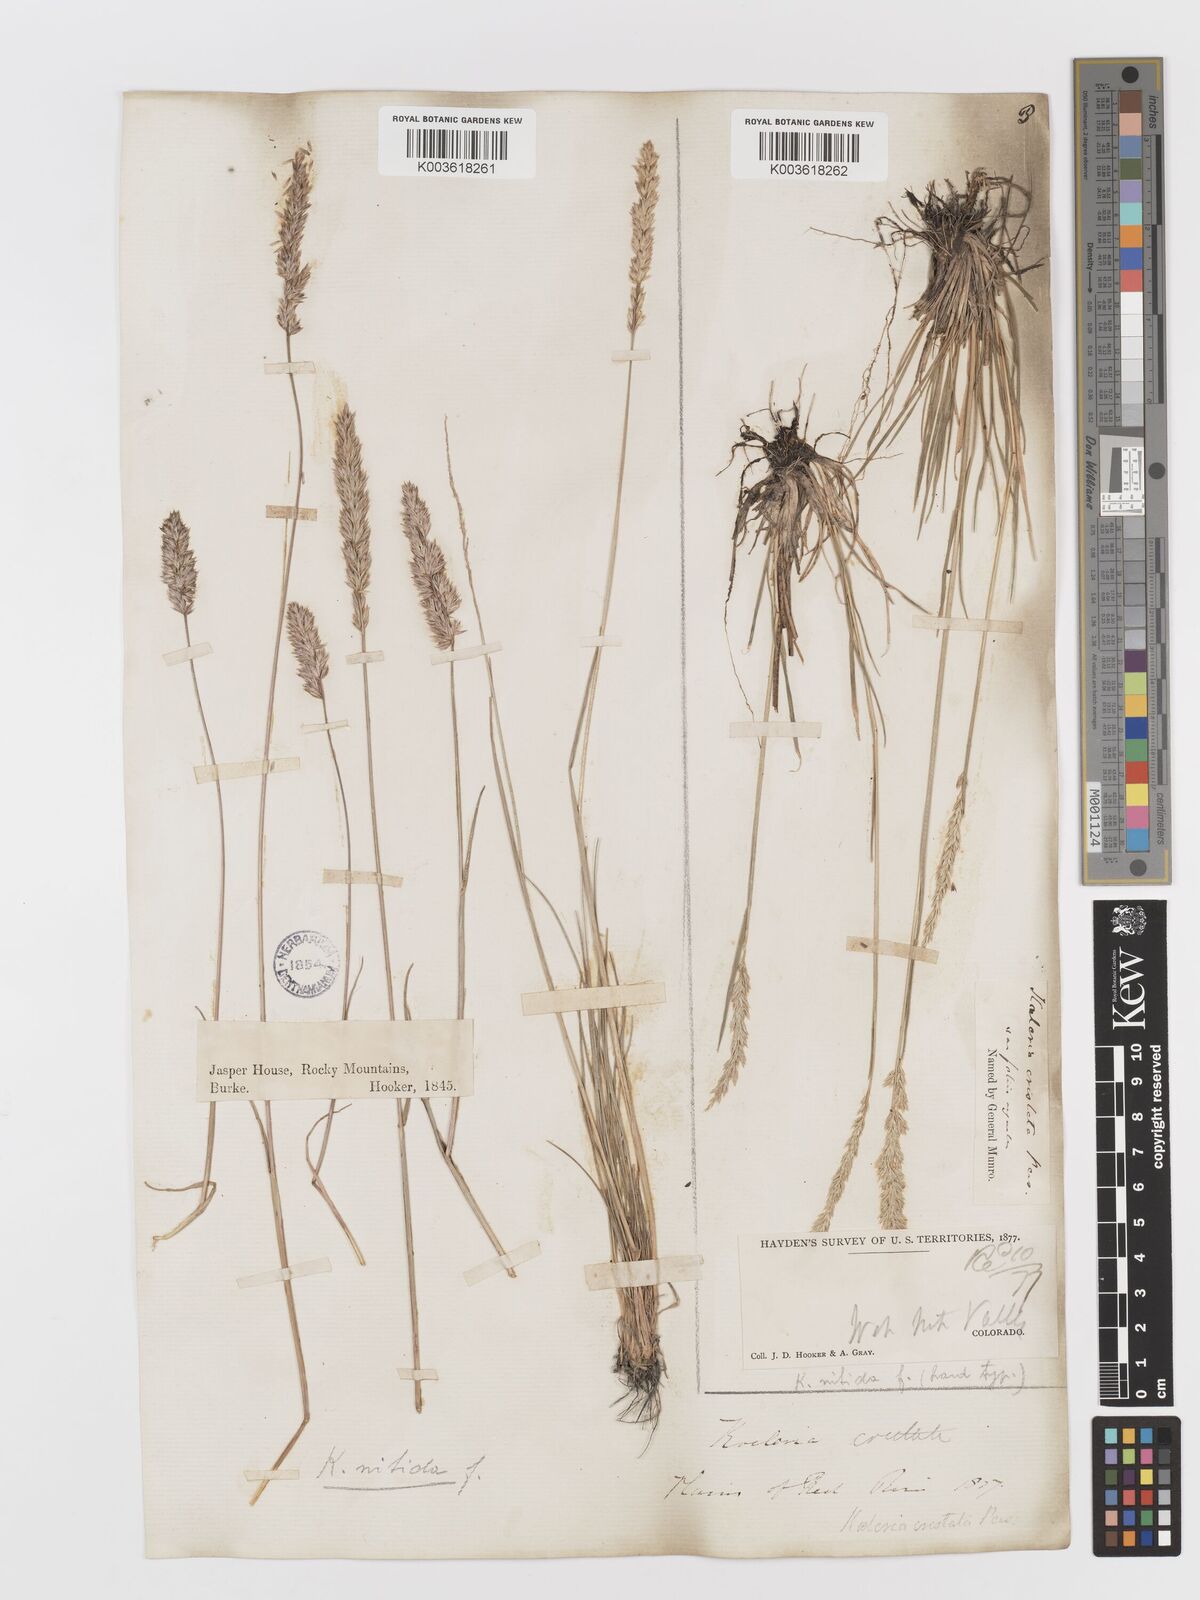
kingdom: Plantae
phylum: Tracheophyta
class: Liliopsida
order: Poales
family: Poaceae
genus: Koeleria
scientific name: Koeleria macrantha
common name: Crested hair-grass
